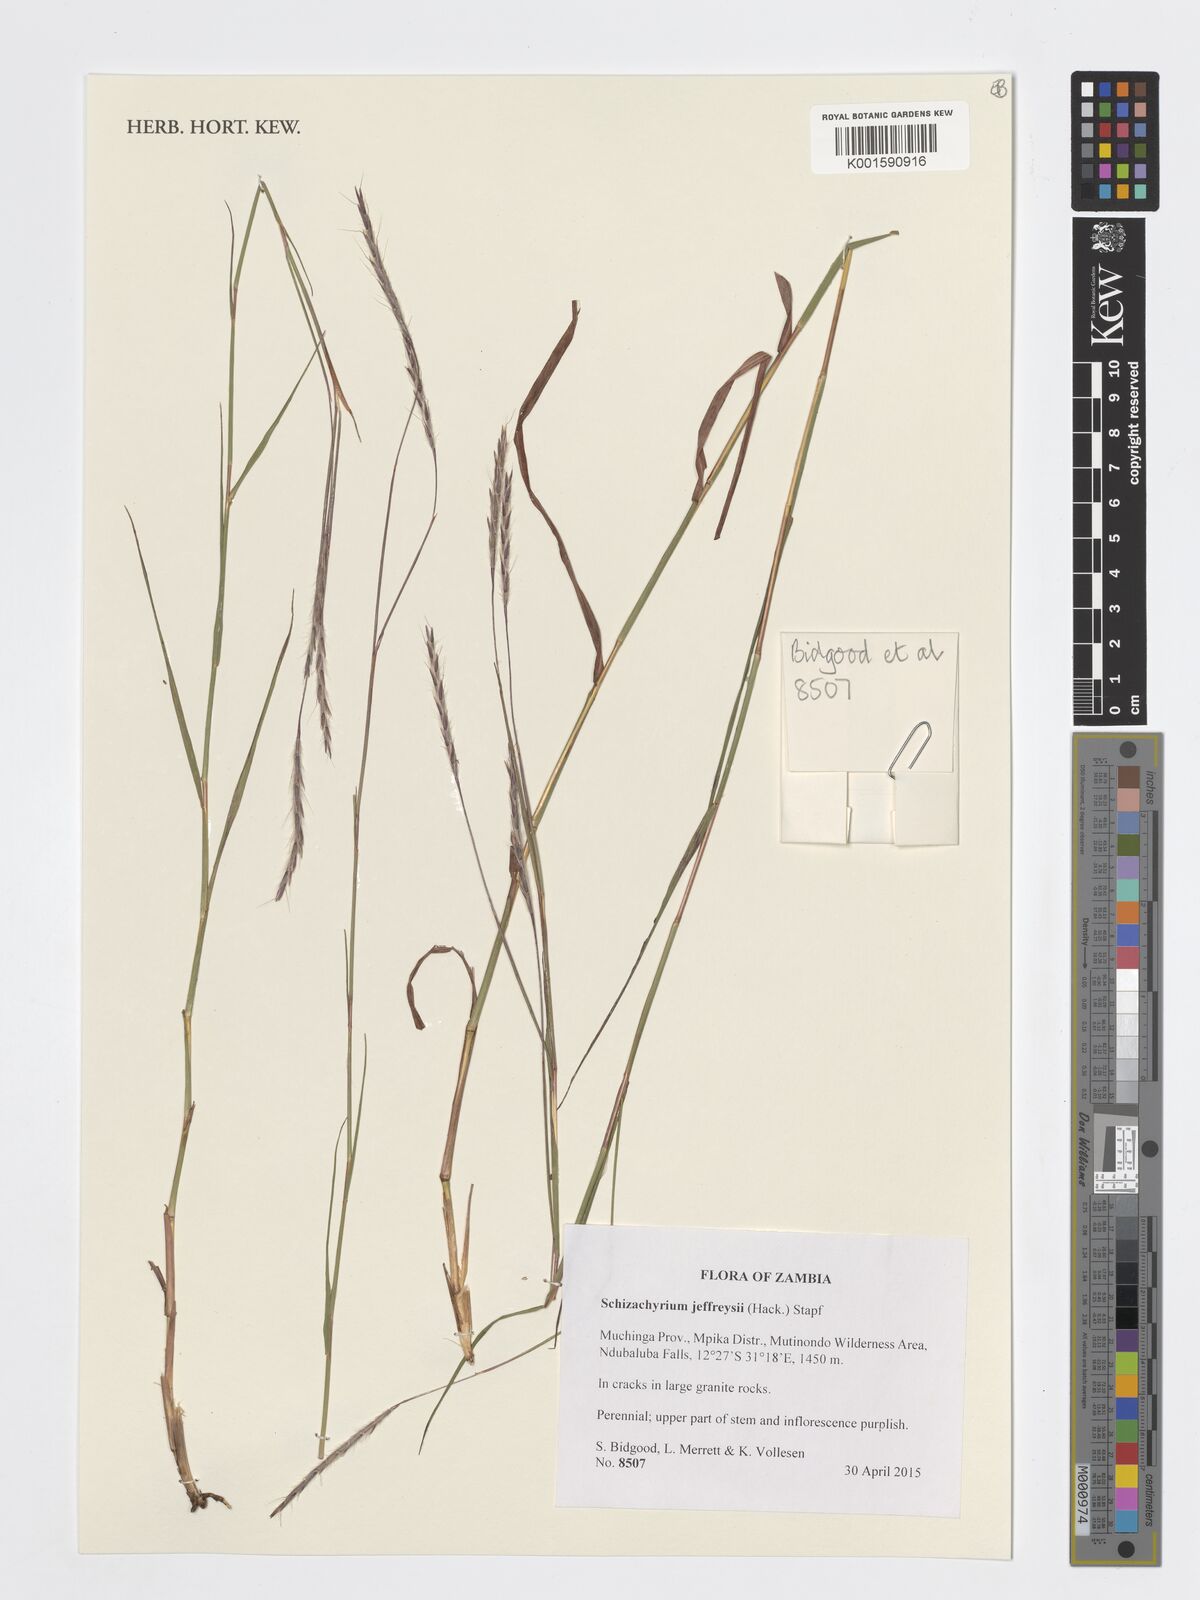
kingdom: Plantae
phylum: Tracheophyta
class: Liliopsida
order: Poales
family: Poaceae
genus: Schizachyrium
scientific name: Schizachyrium jeffreysii
